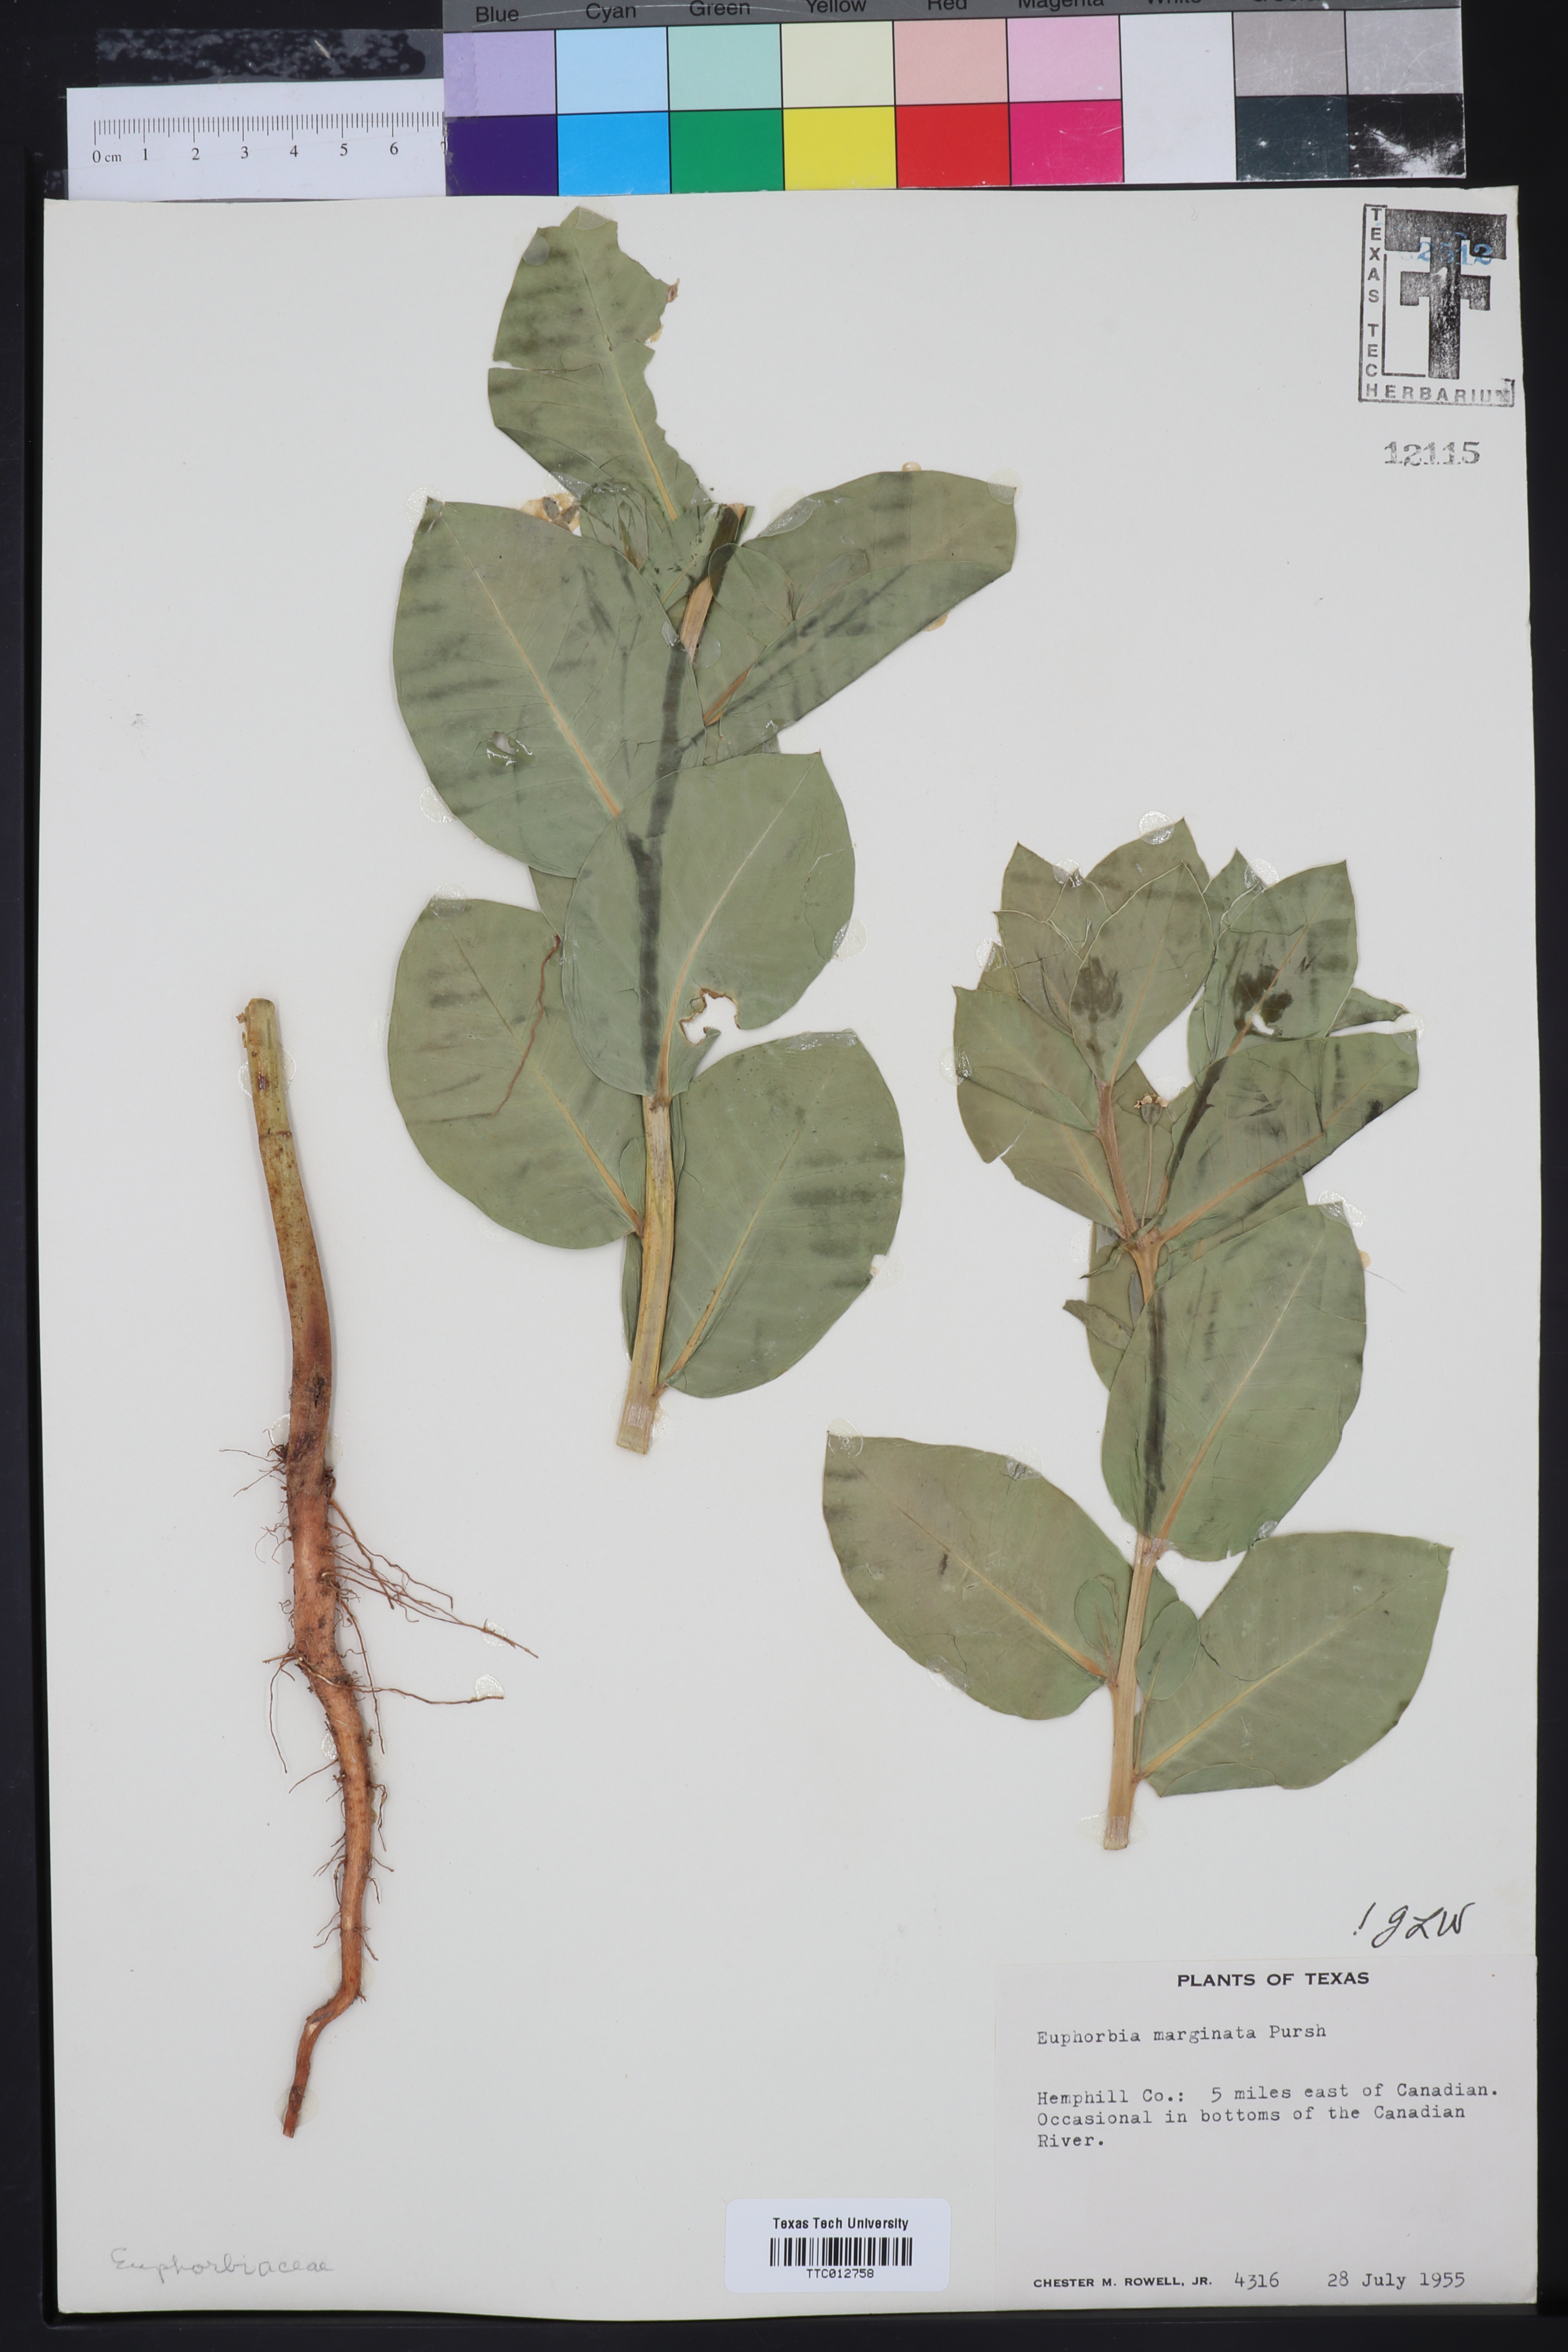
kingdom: Plantae
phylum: Tracheophyta
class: Magnoliopsida
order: Malpighiales
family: Euphorbiaceae
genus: Euphorbia
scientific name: Euphorbia marginata
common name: Ghostweed
